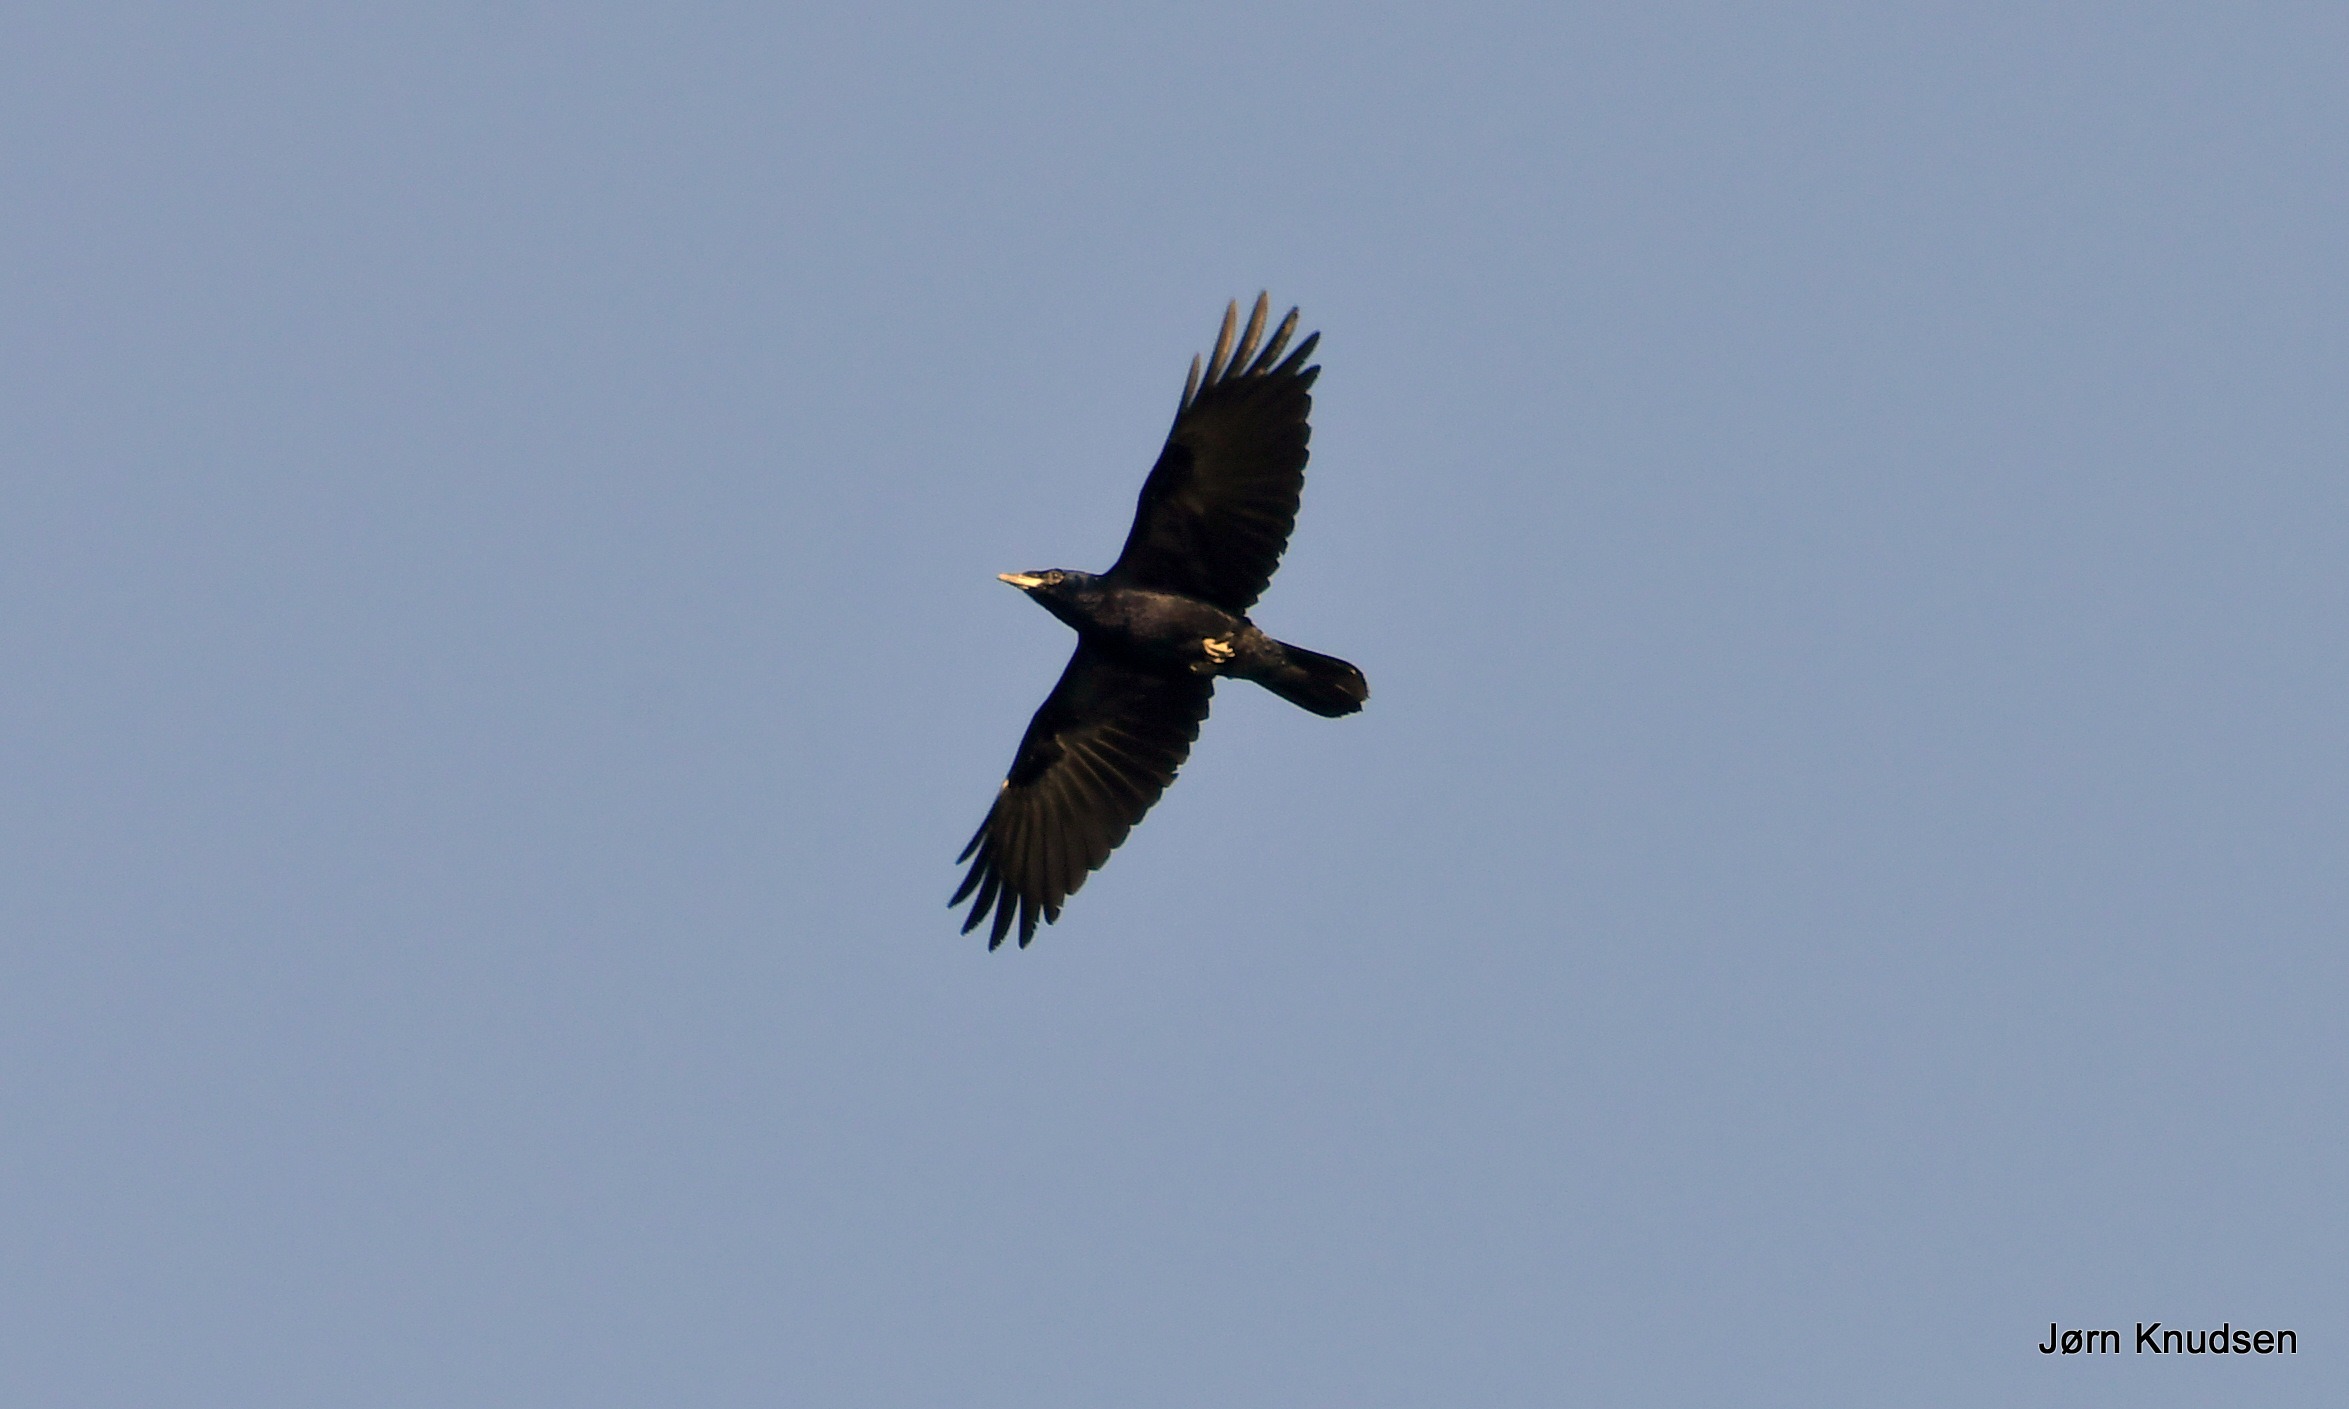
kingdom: Animalia
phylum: Chordata
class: Aves
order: Passeriformes
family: Corvidae
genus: Corvus
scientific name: Corvus frugilegus
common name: Råge
